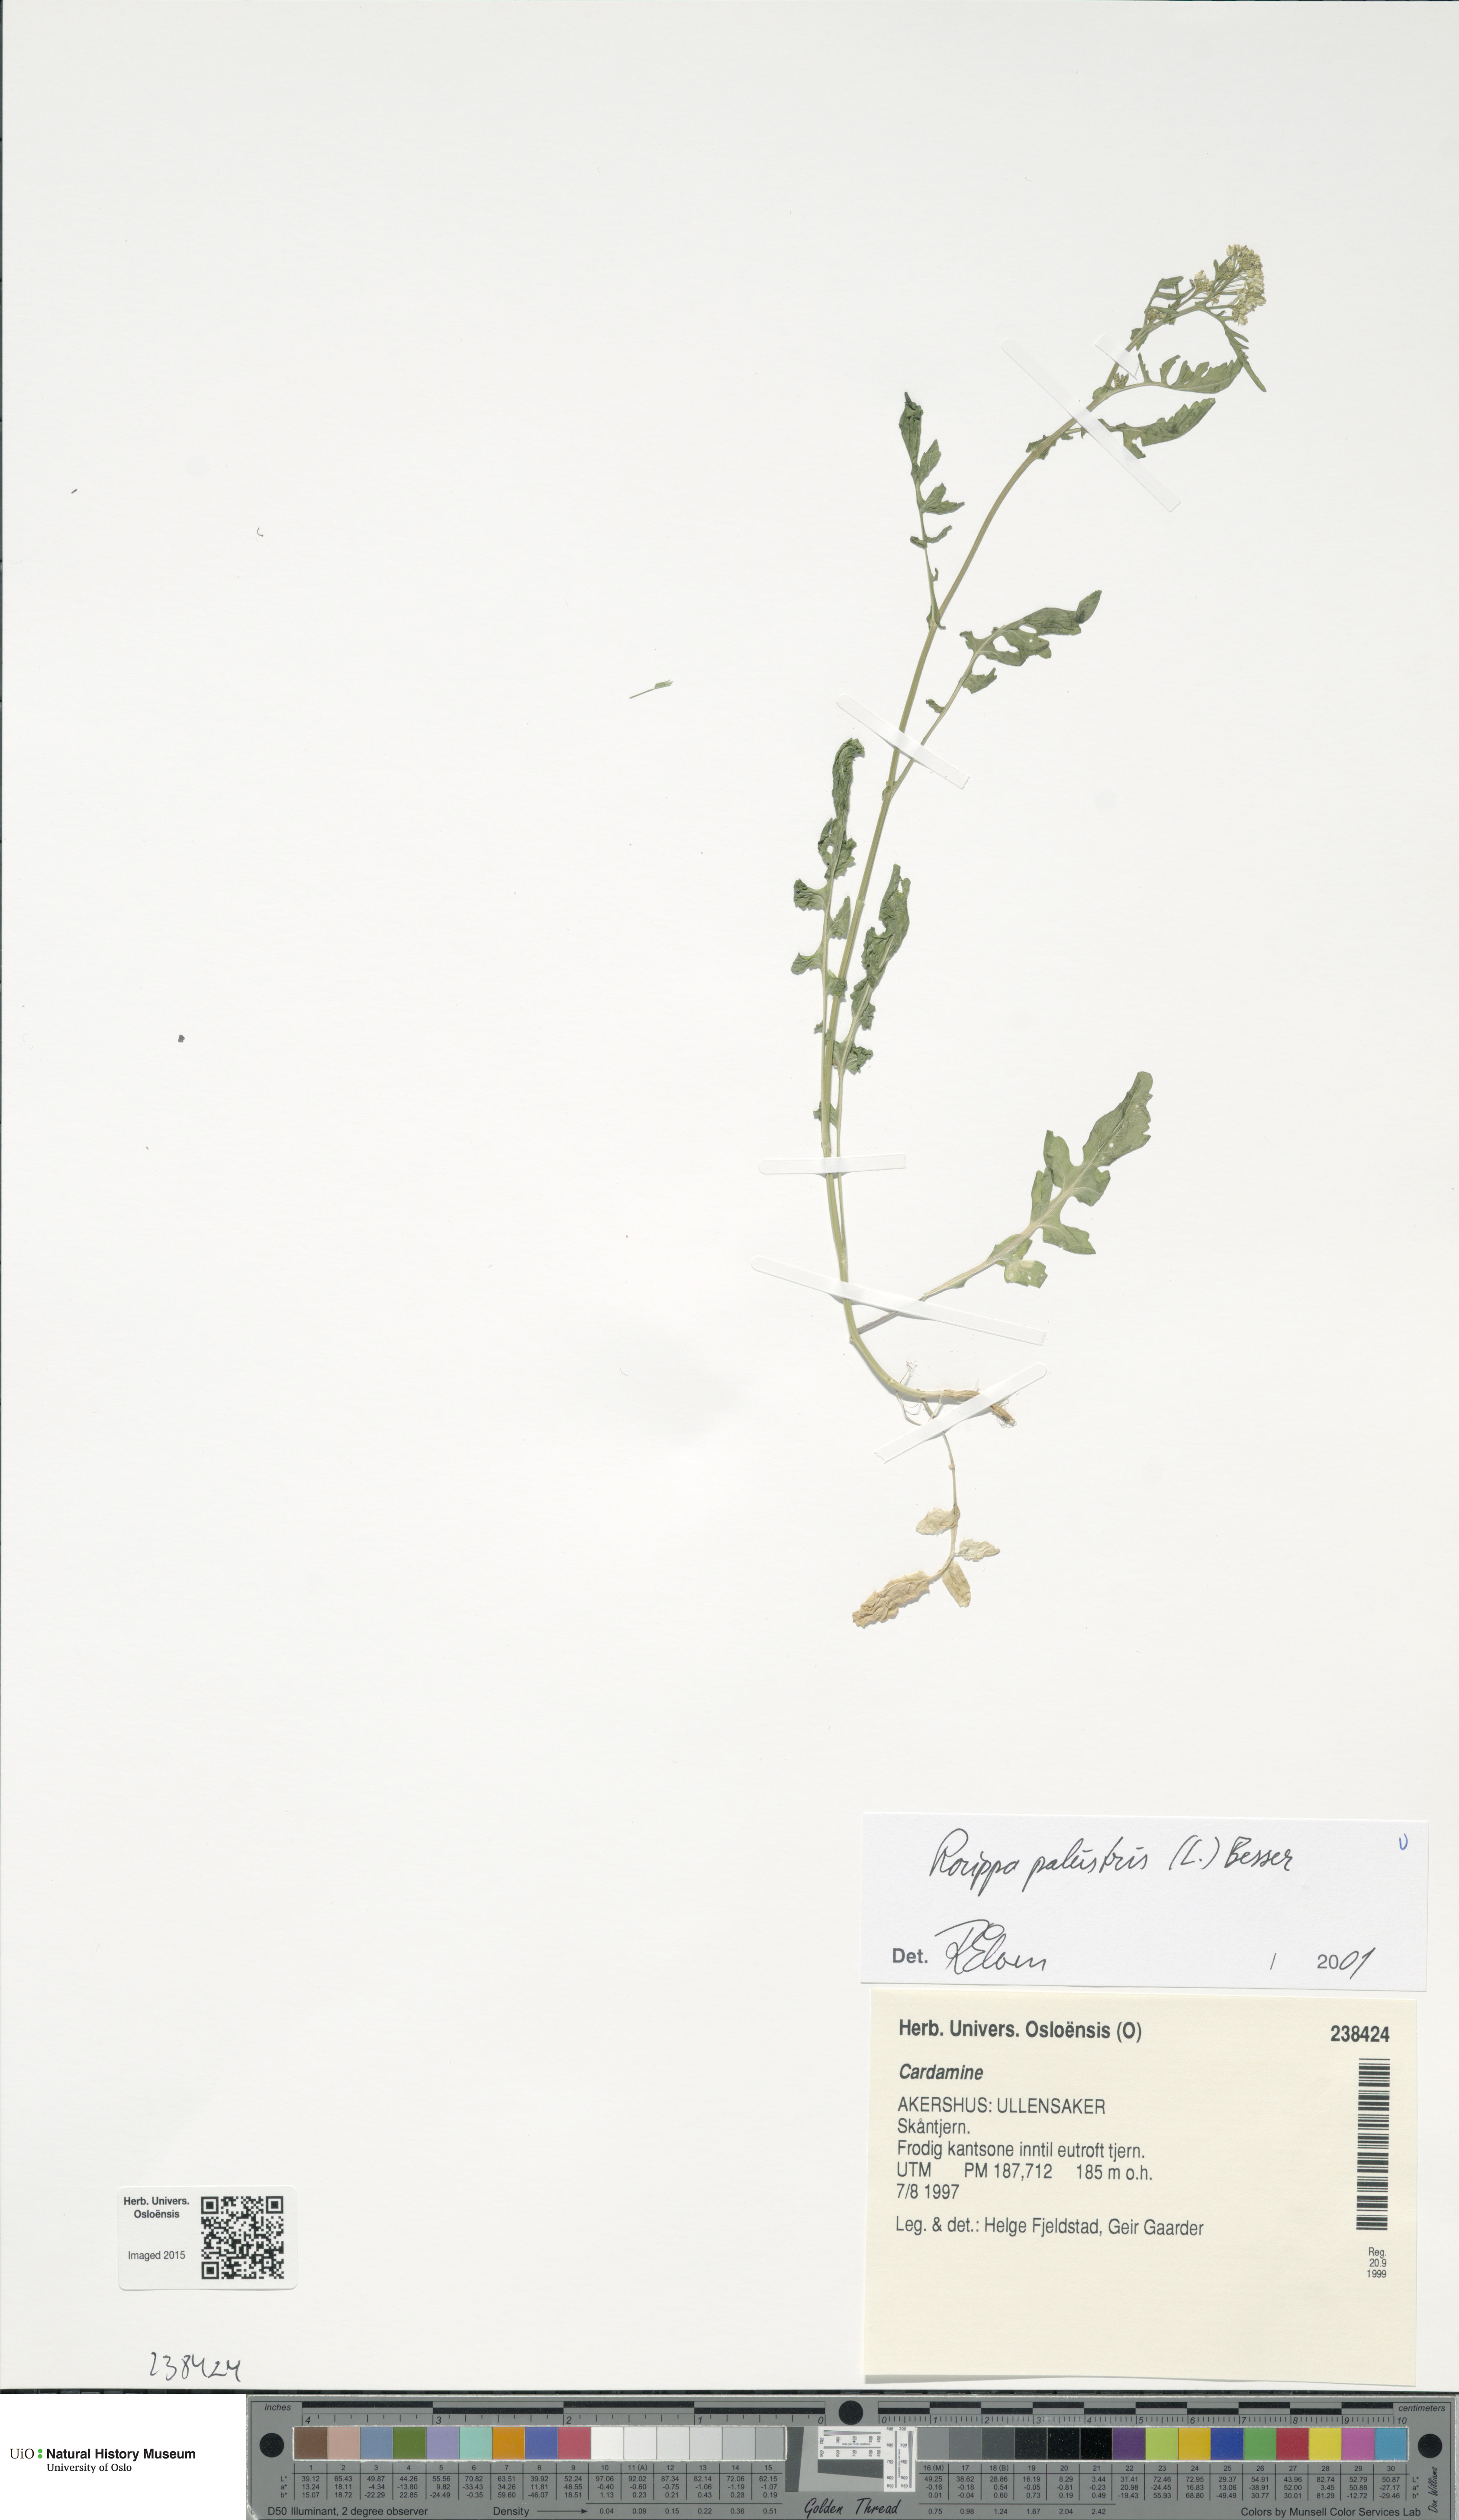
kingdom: Plantae
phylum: Tracheophyta
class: Magnoliopsida
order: Brassicales
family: Brassicaceae
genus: Rorippa
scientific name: Rorippa palustris
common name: Marsh yellow-cress
